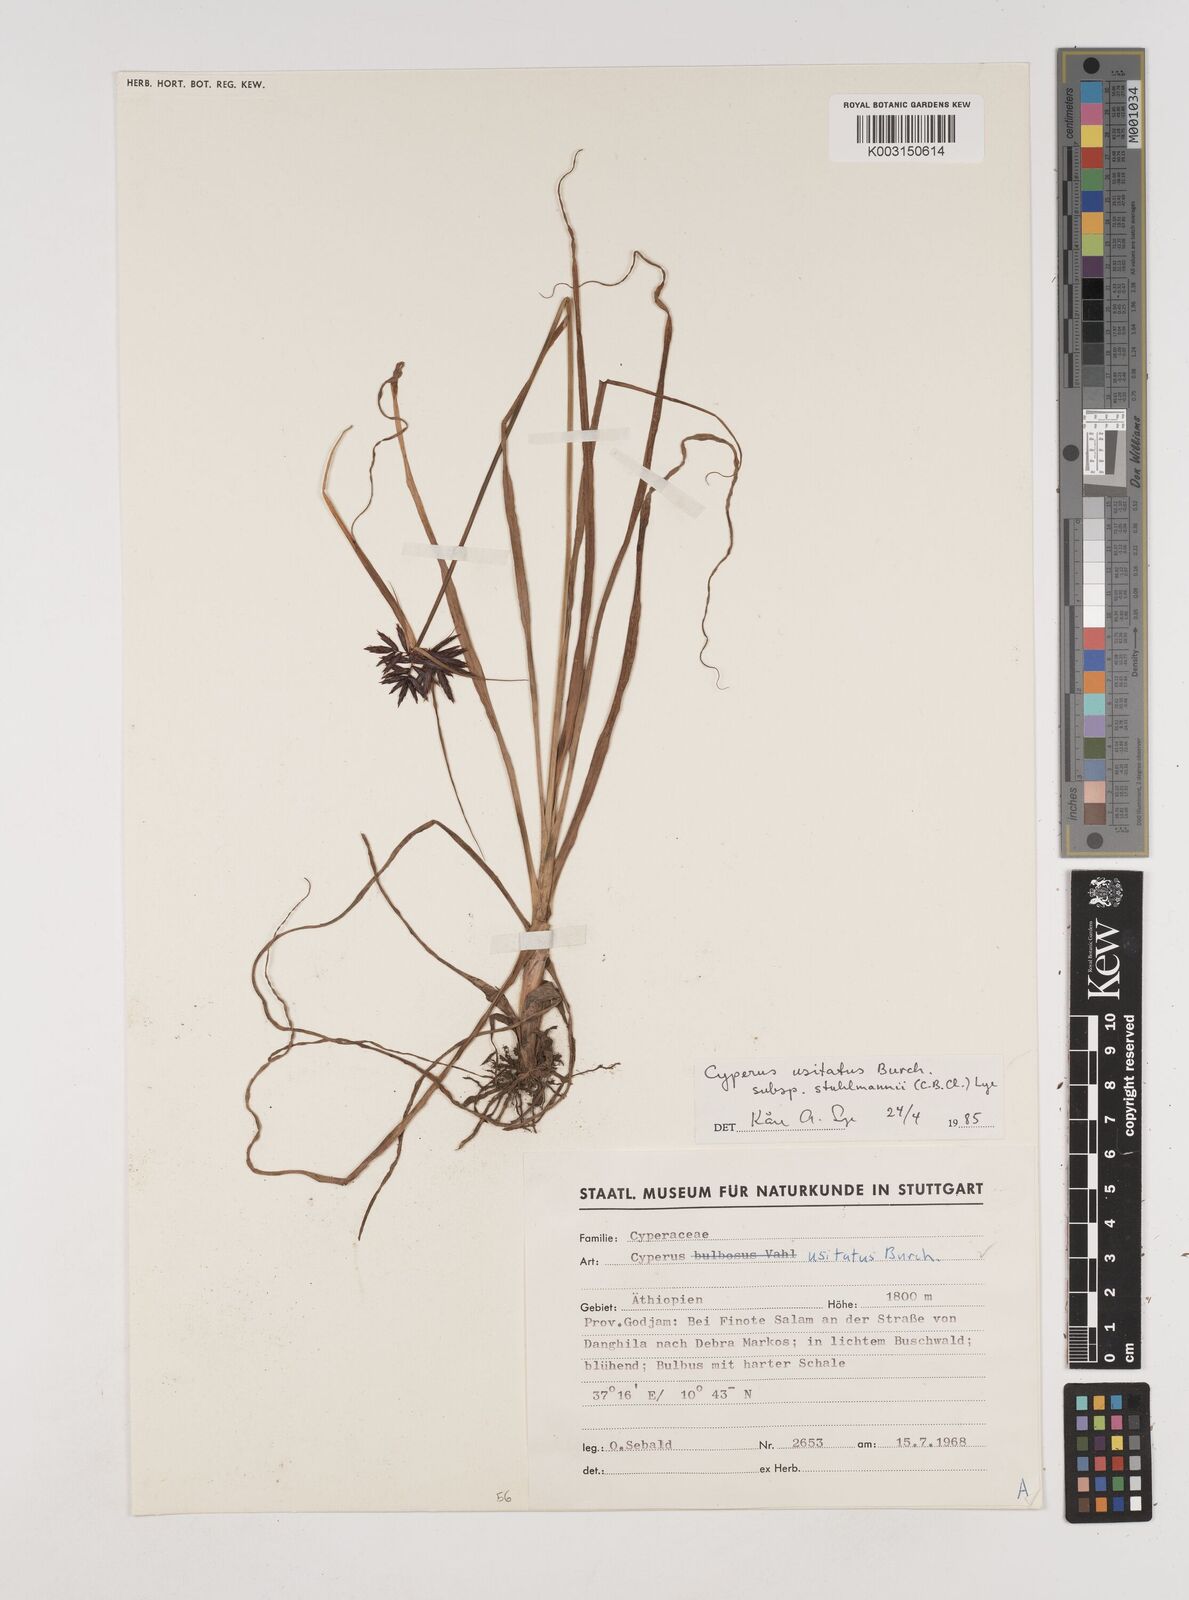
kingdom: Plantae
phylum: Tracheophyta
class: Liliopsida
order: Poales
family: Cyperaceae
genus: Cyperus
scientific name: Cyperus usitatus
